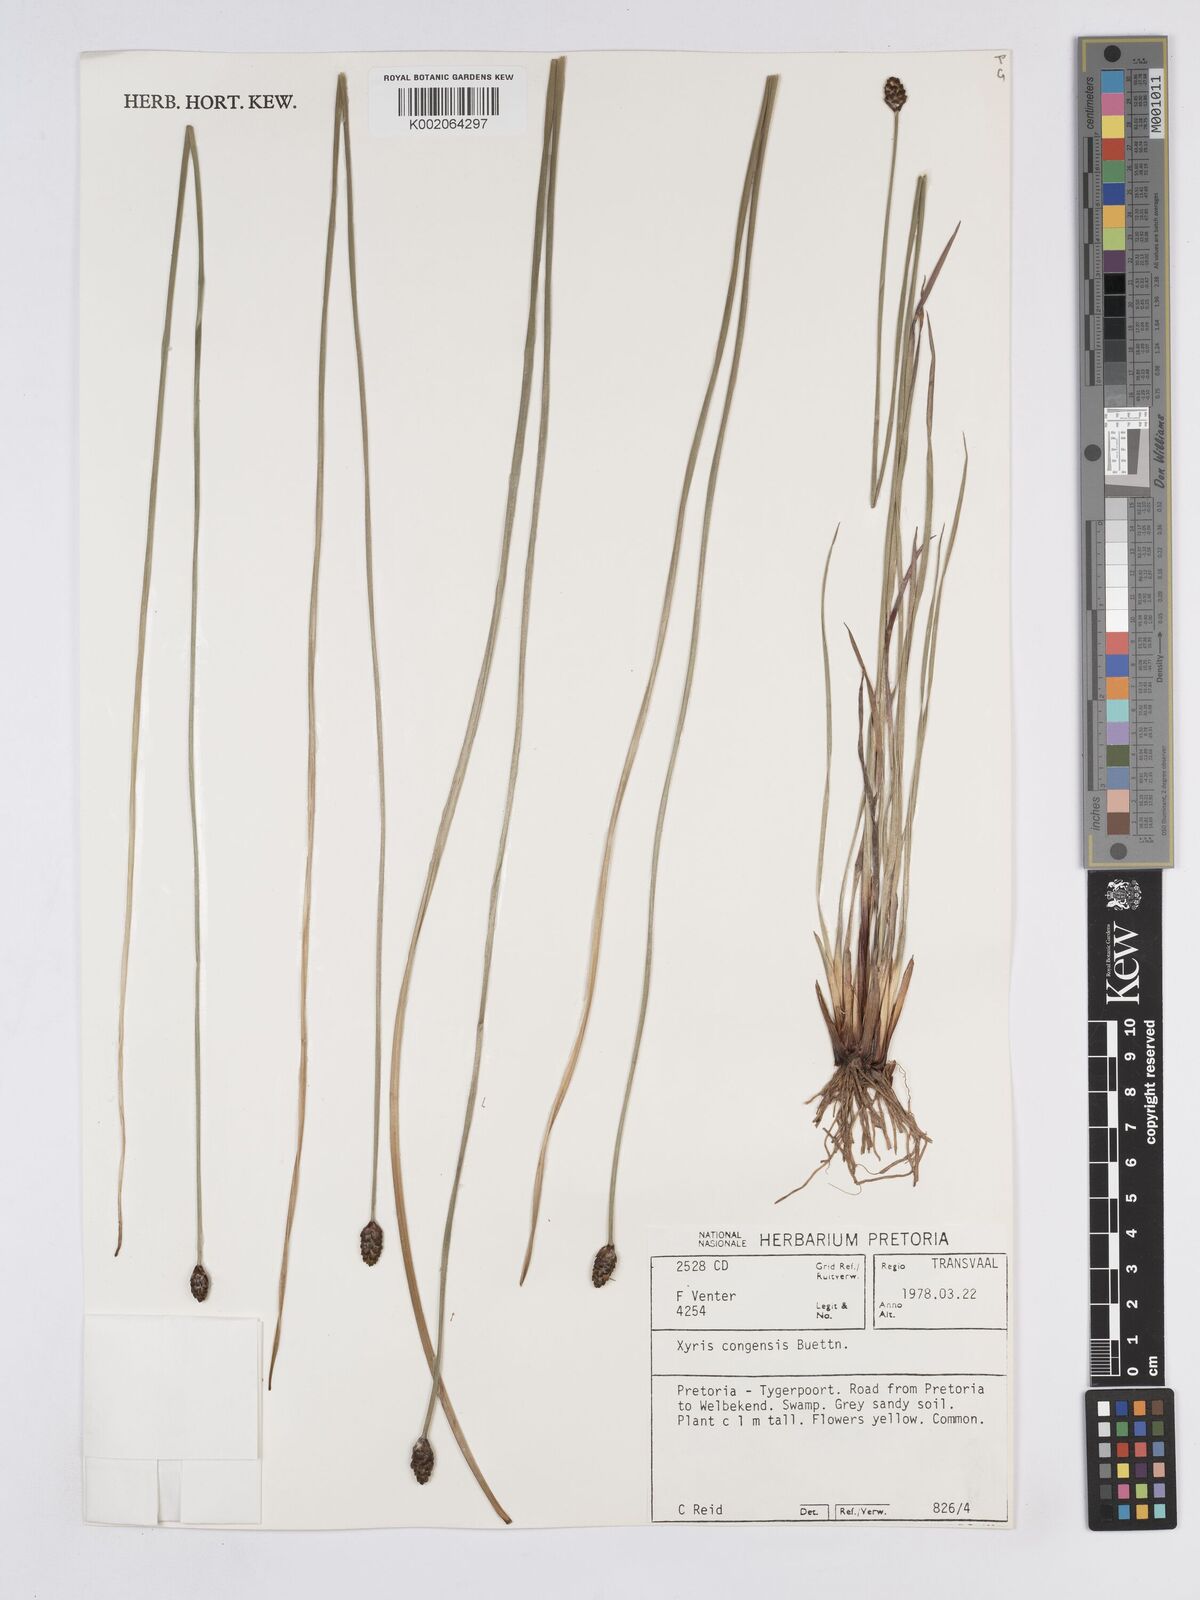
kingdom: Plantae
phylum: Tracheophyta
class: Liliopsida
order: Poales
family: Xyridaceae
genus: Xyris
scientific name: Xyris congensis
